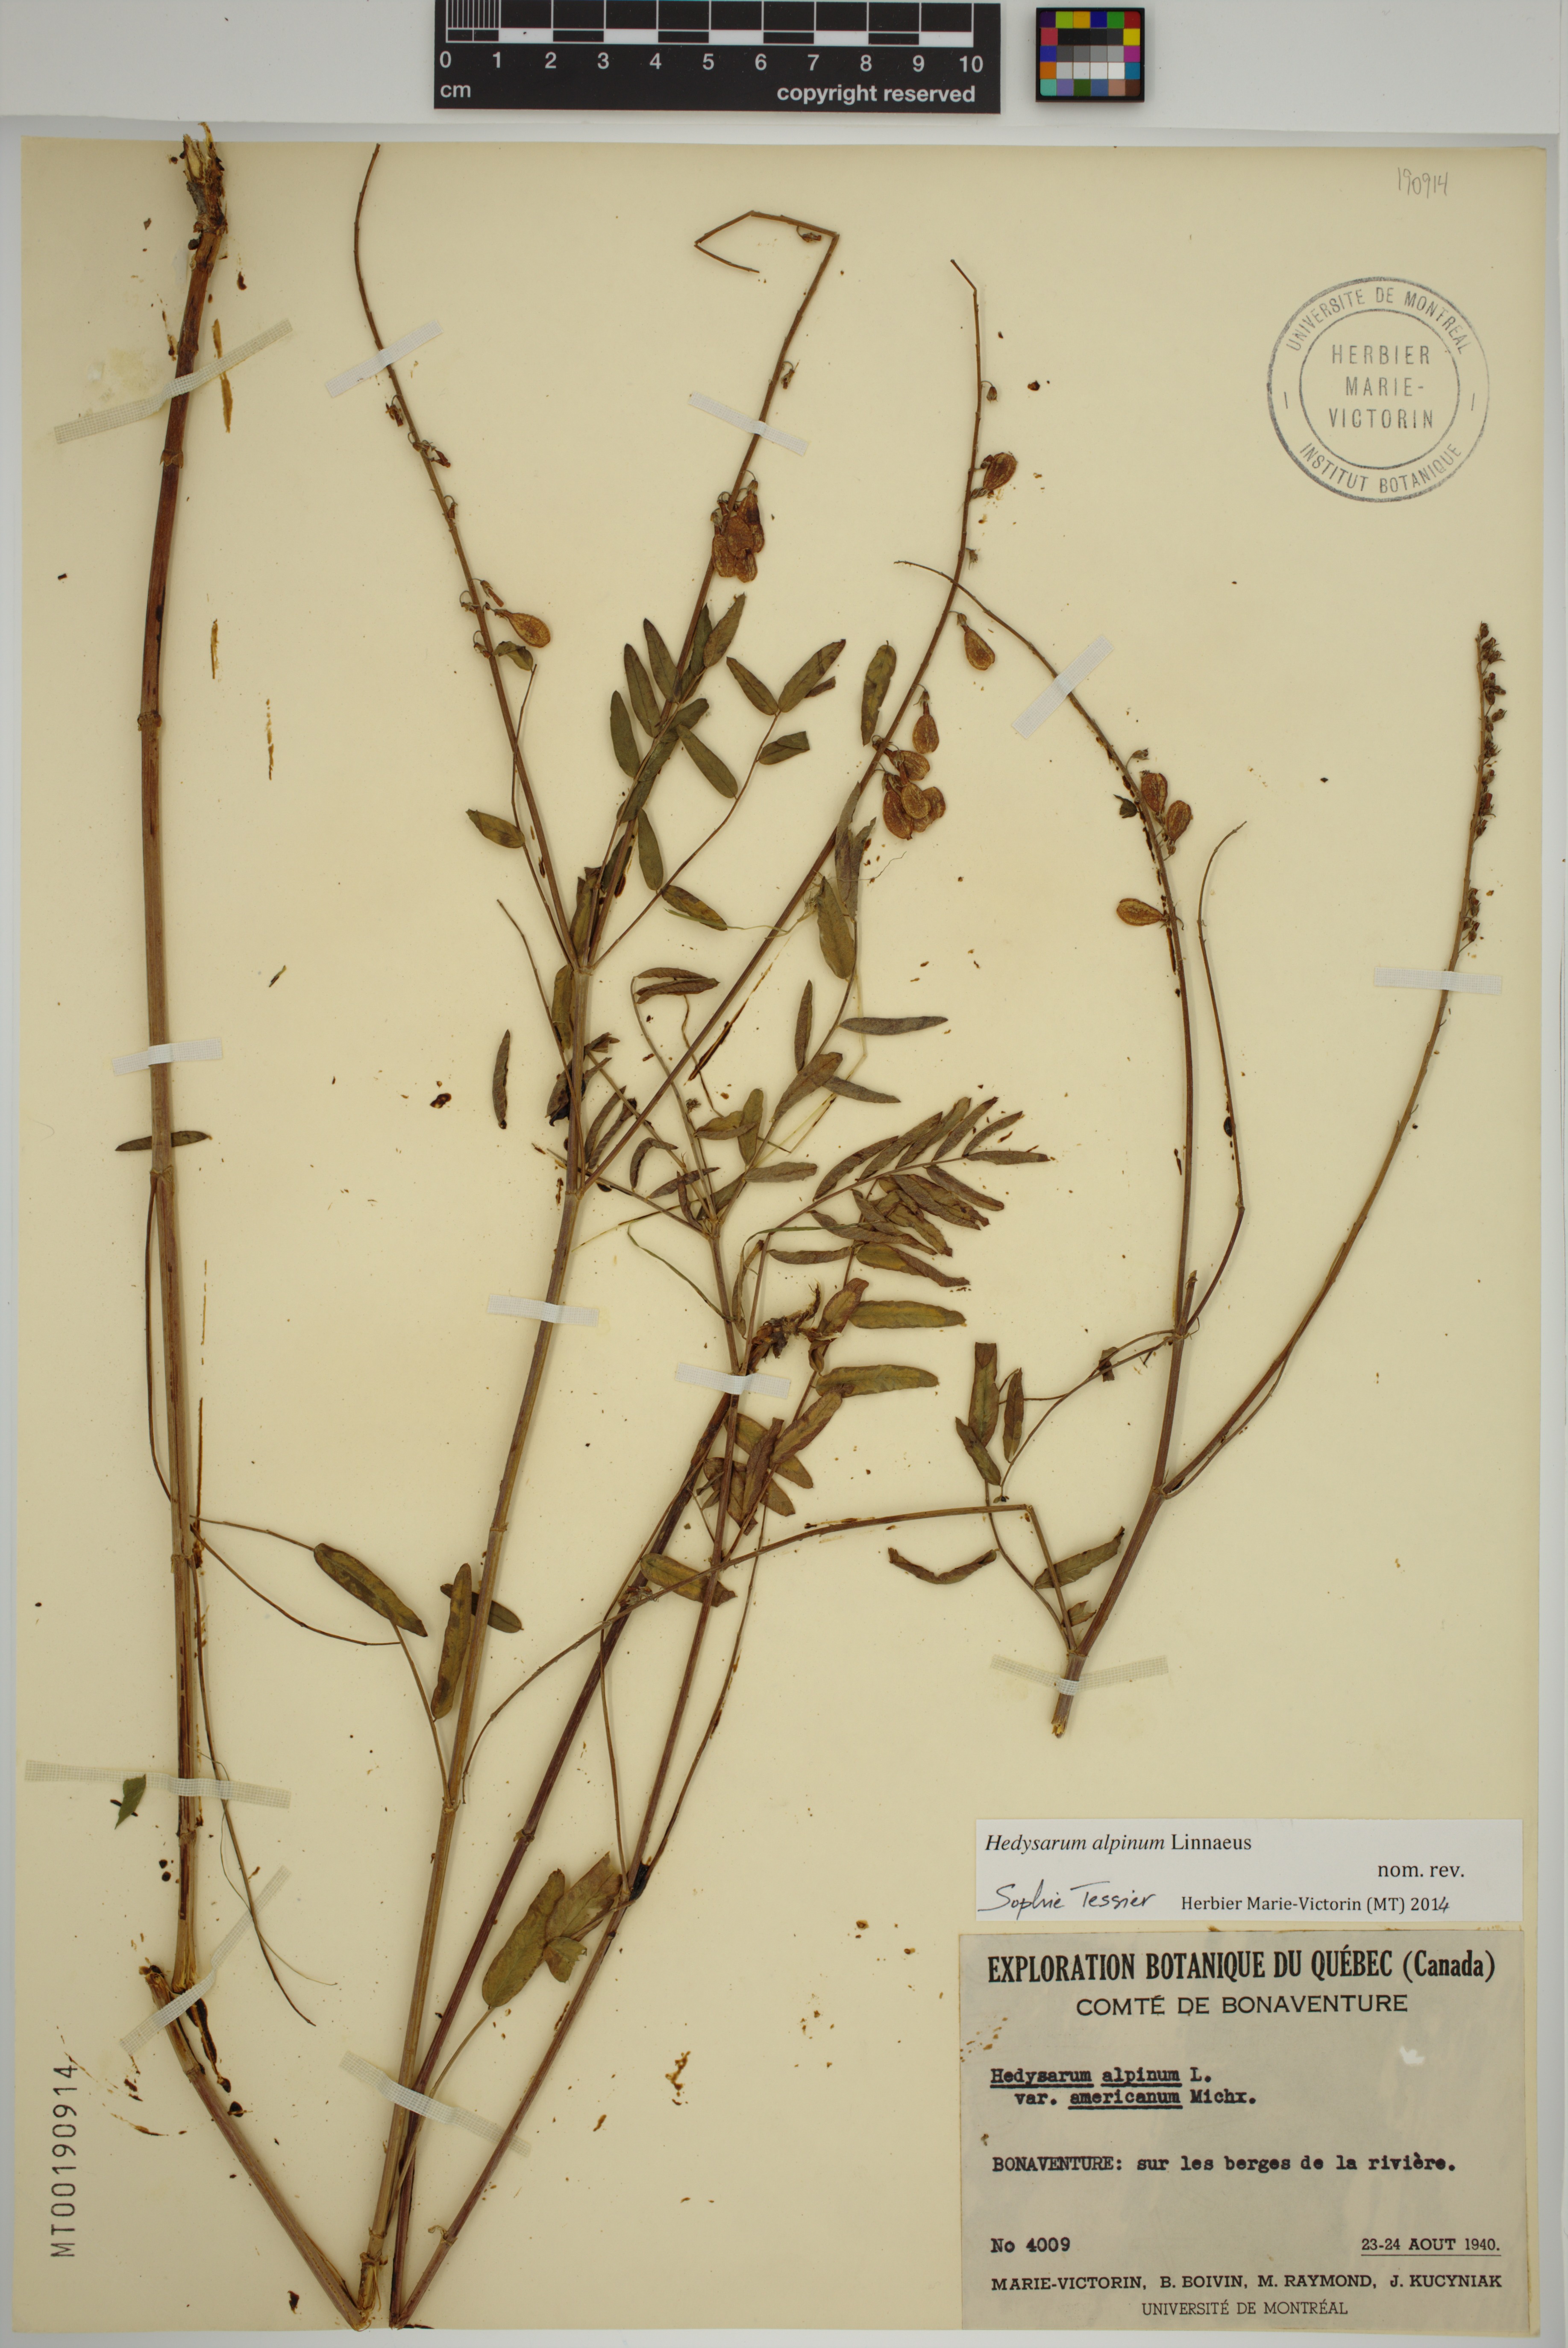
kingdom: Plantae
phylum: Tracheophyta
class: Magnoliopsida
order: Fabales
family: Fabaceae
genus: Hedysarum
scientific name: Hedysarum alpinum
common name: Alpine sweet-vetch
